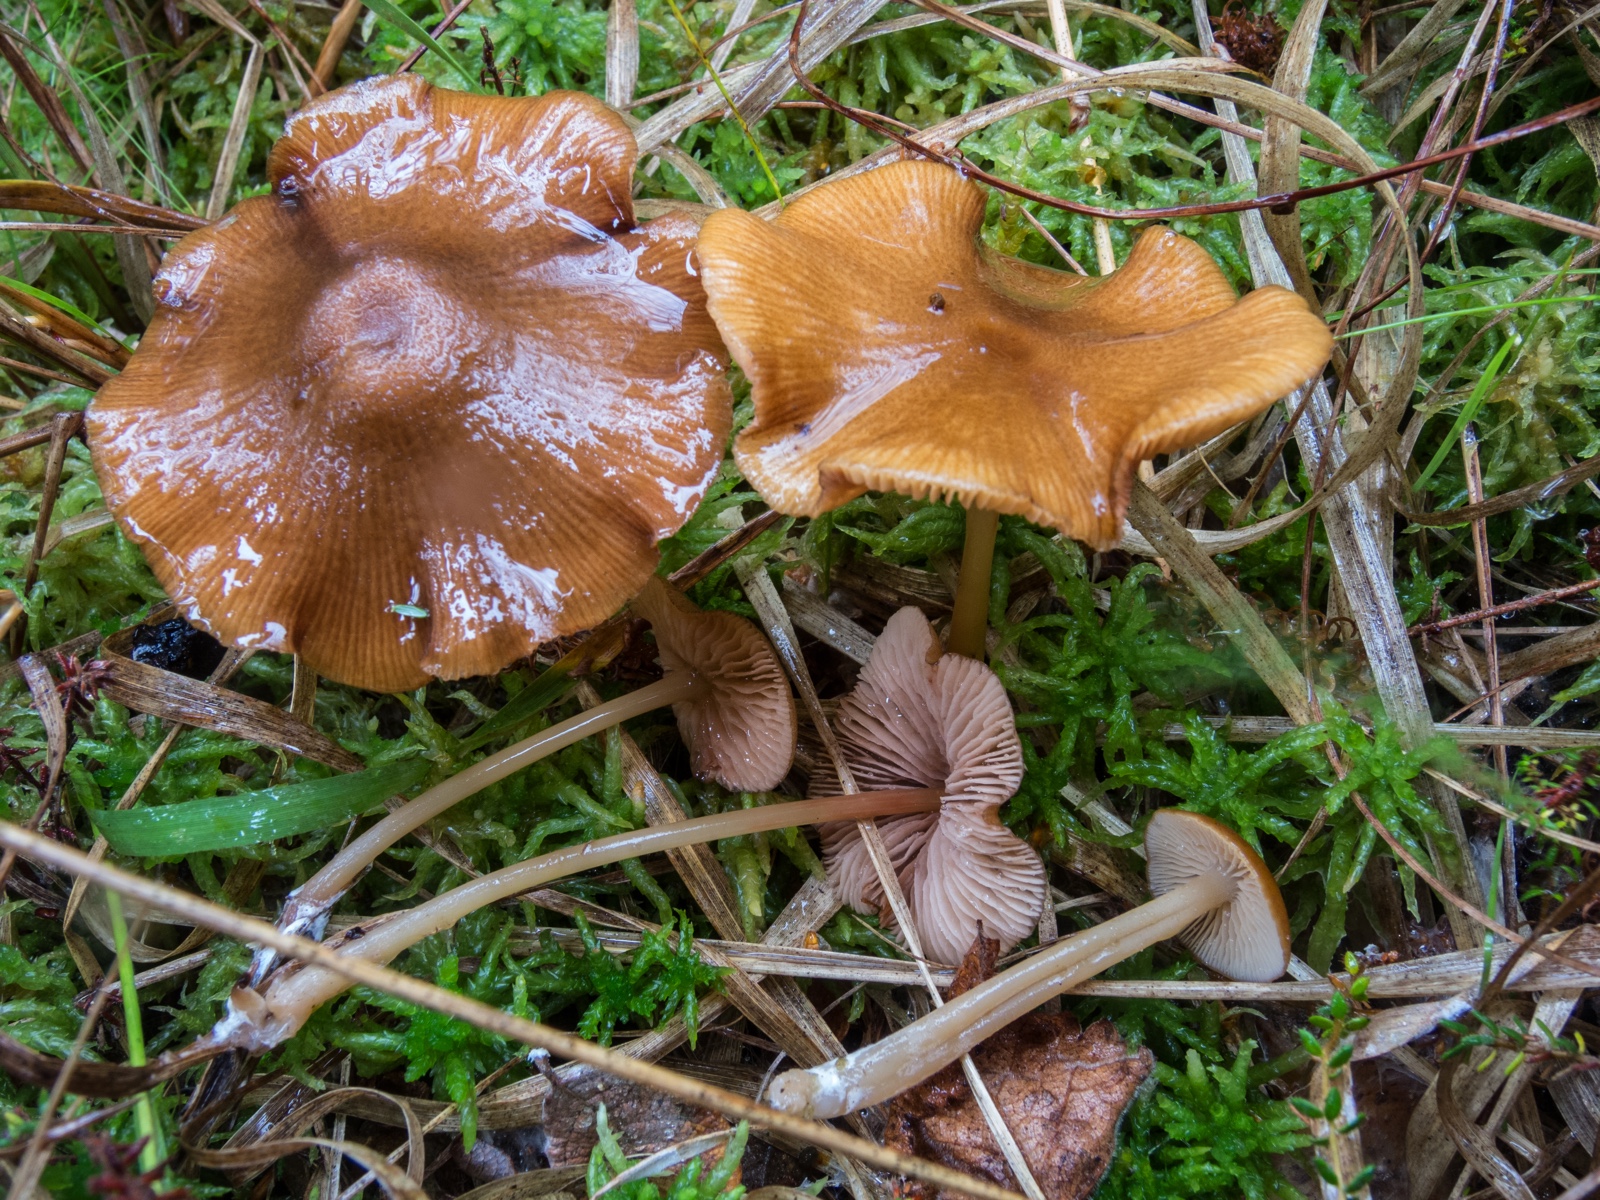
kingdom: Fungi
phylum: Basidiomycota
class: Agaricomycetes
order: Agaricales
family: Entolomataceae
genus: Entoloma
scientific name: Entoloma formosum
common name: brungul rødblad
